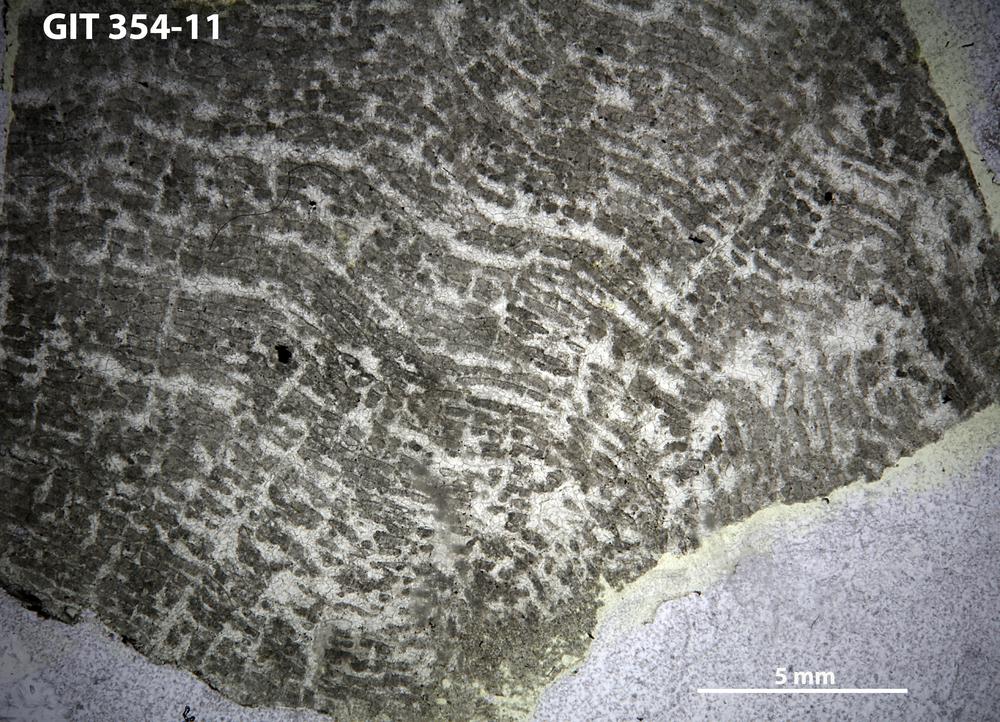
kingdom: Animalia
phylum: Porifera
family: Stromatoceriidae
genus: Cystistroma
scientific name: Cystistroma Stromatocerium canadense
